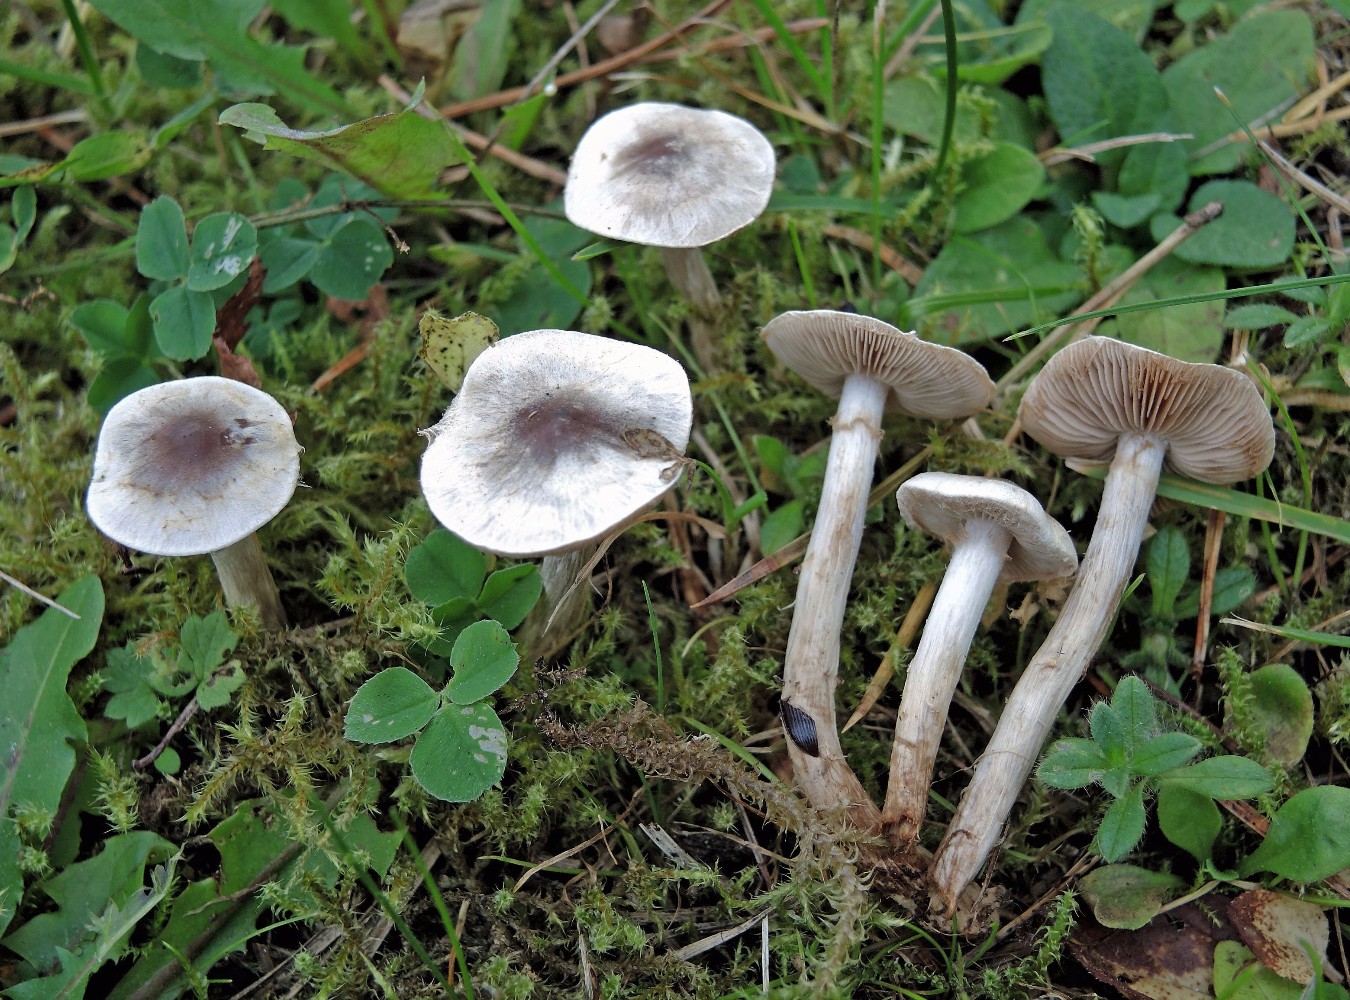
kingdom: Fungi
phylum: Basidiomycota
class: Agaricomycetes
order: Agaricales
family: Hymenogastraceae
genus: Hebeloma
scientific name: Hebeloma mesophaeum
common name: lerbrun tåreblad
